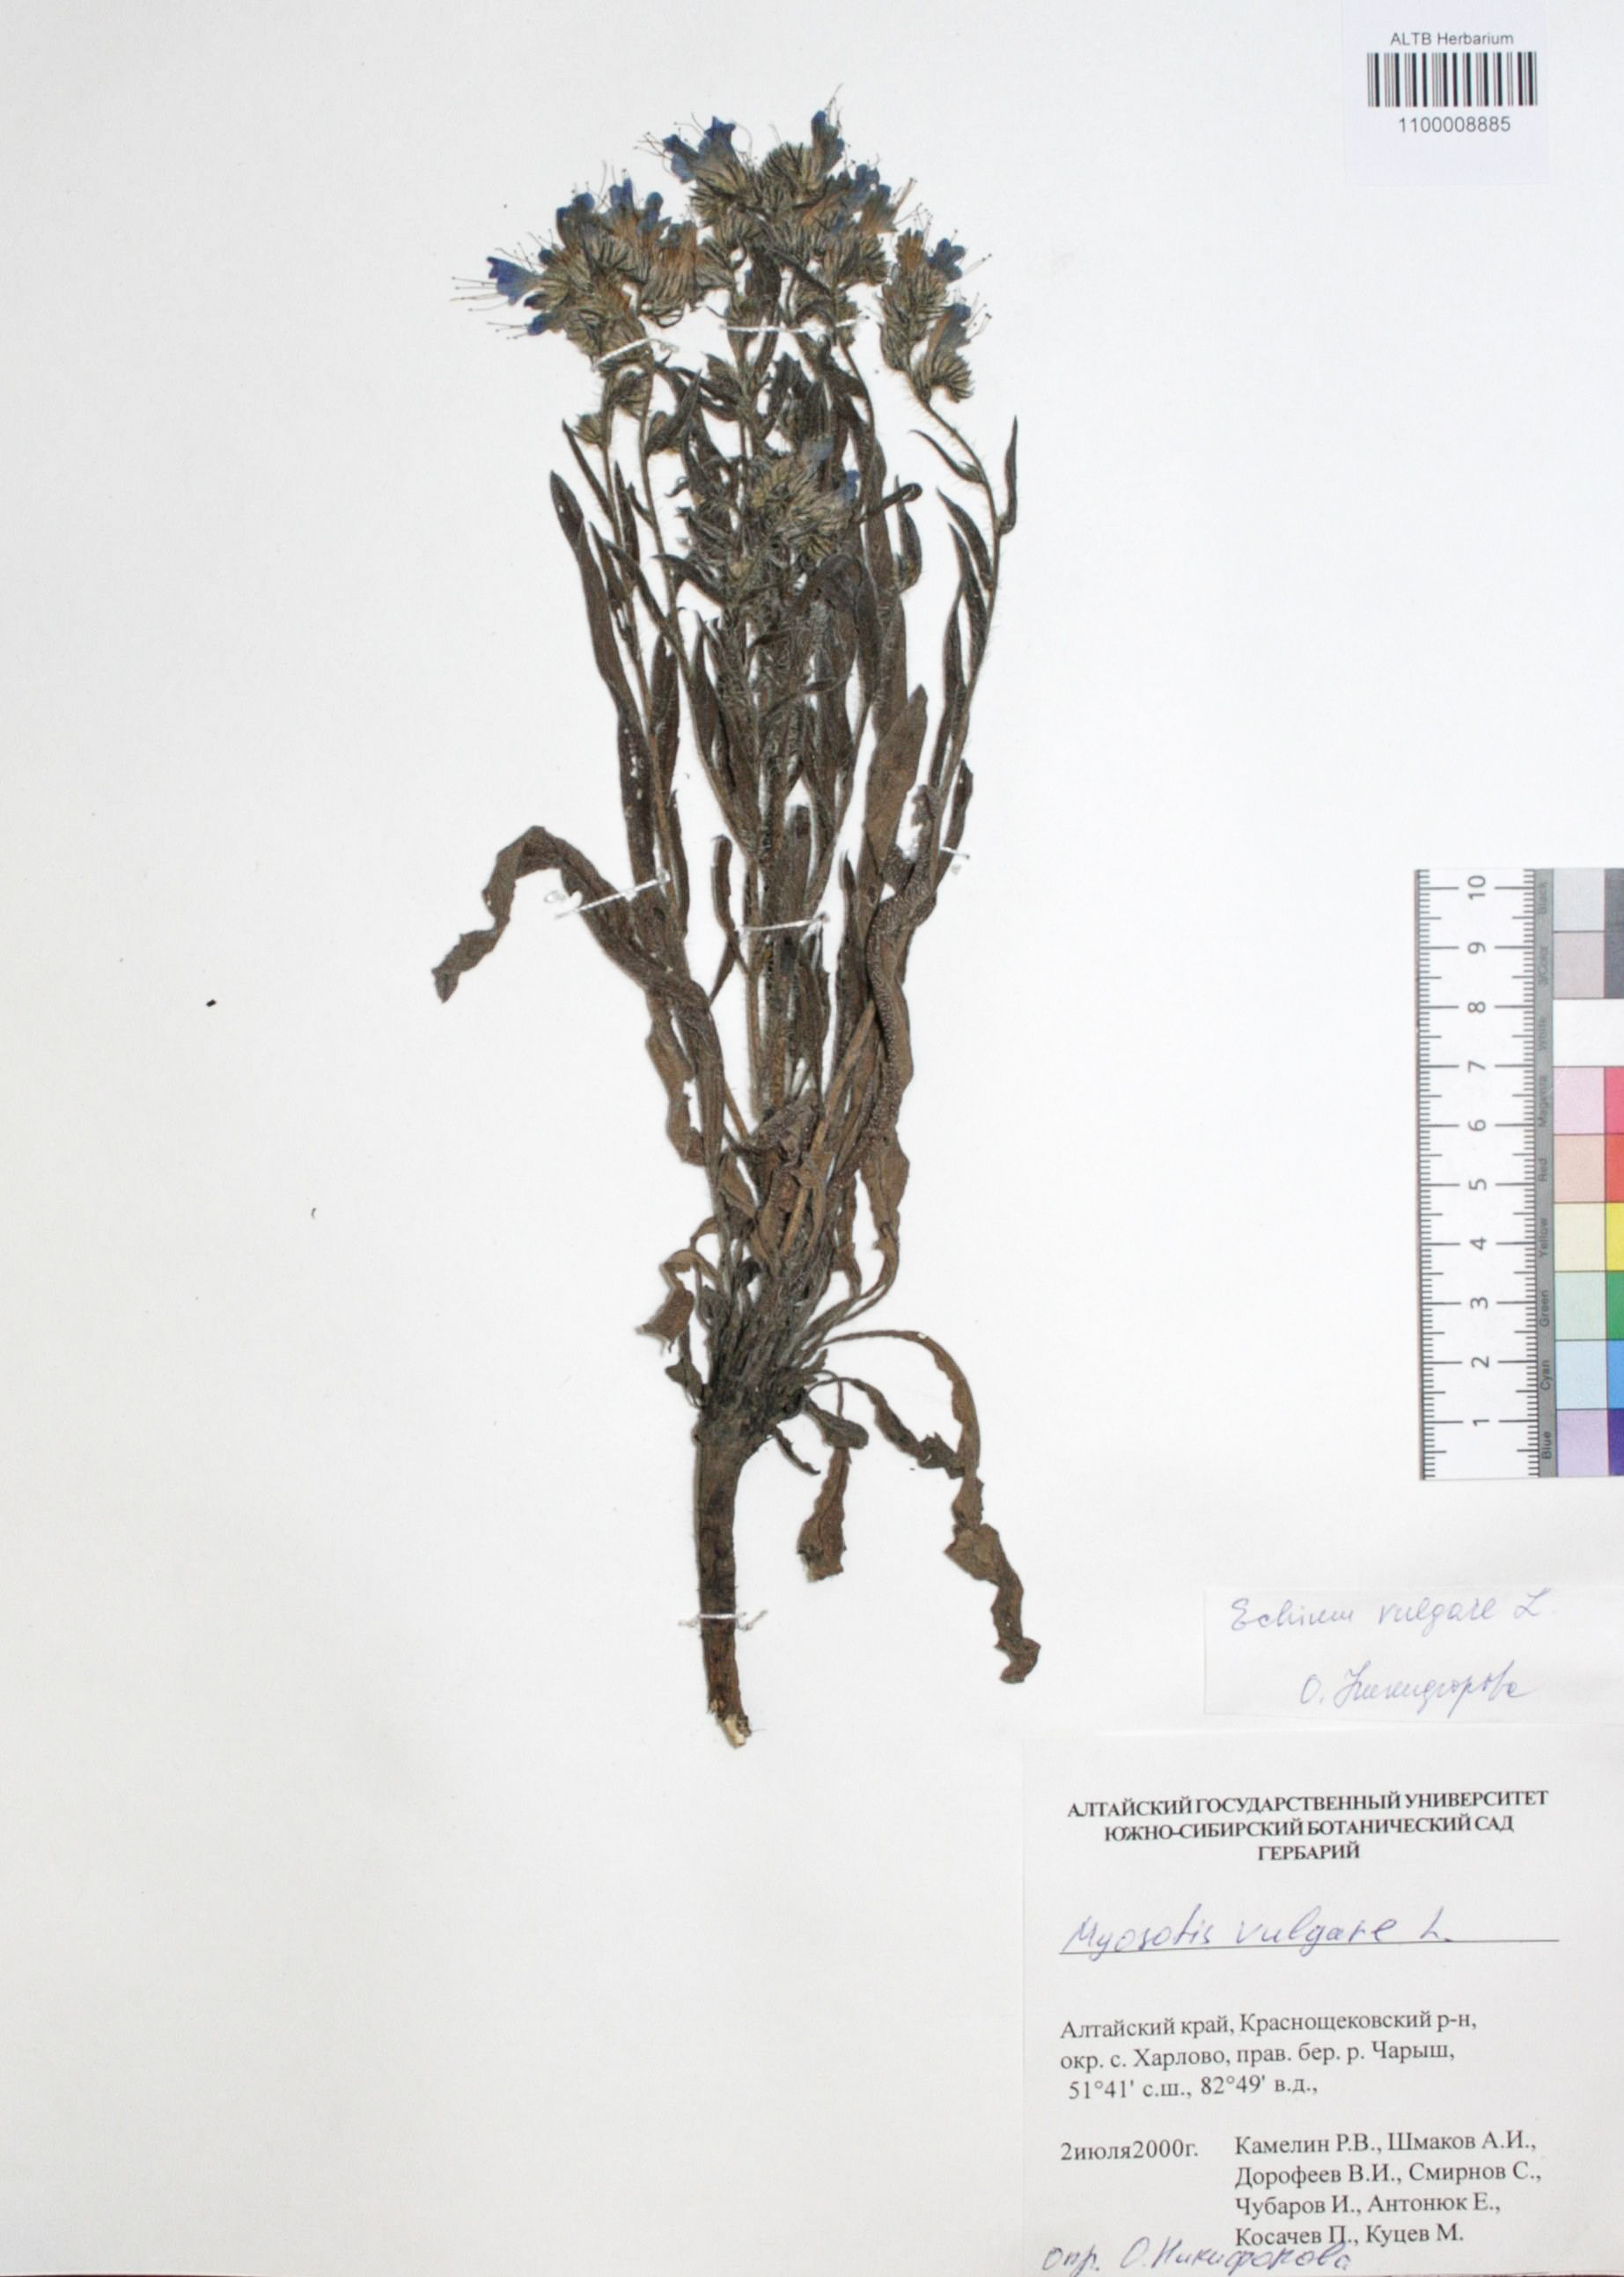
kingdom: Plantae
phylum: Tracheophyta
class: Magnoliopsida
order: Boraginales
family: Boraginaceae
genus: Myosotis
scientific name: Myosotis
